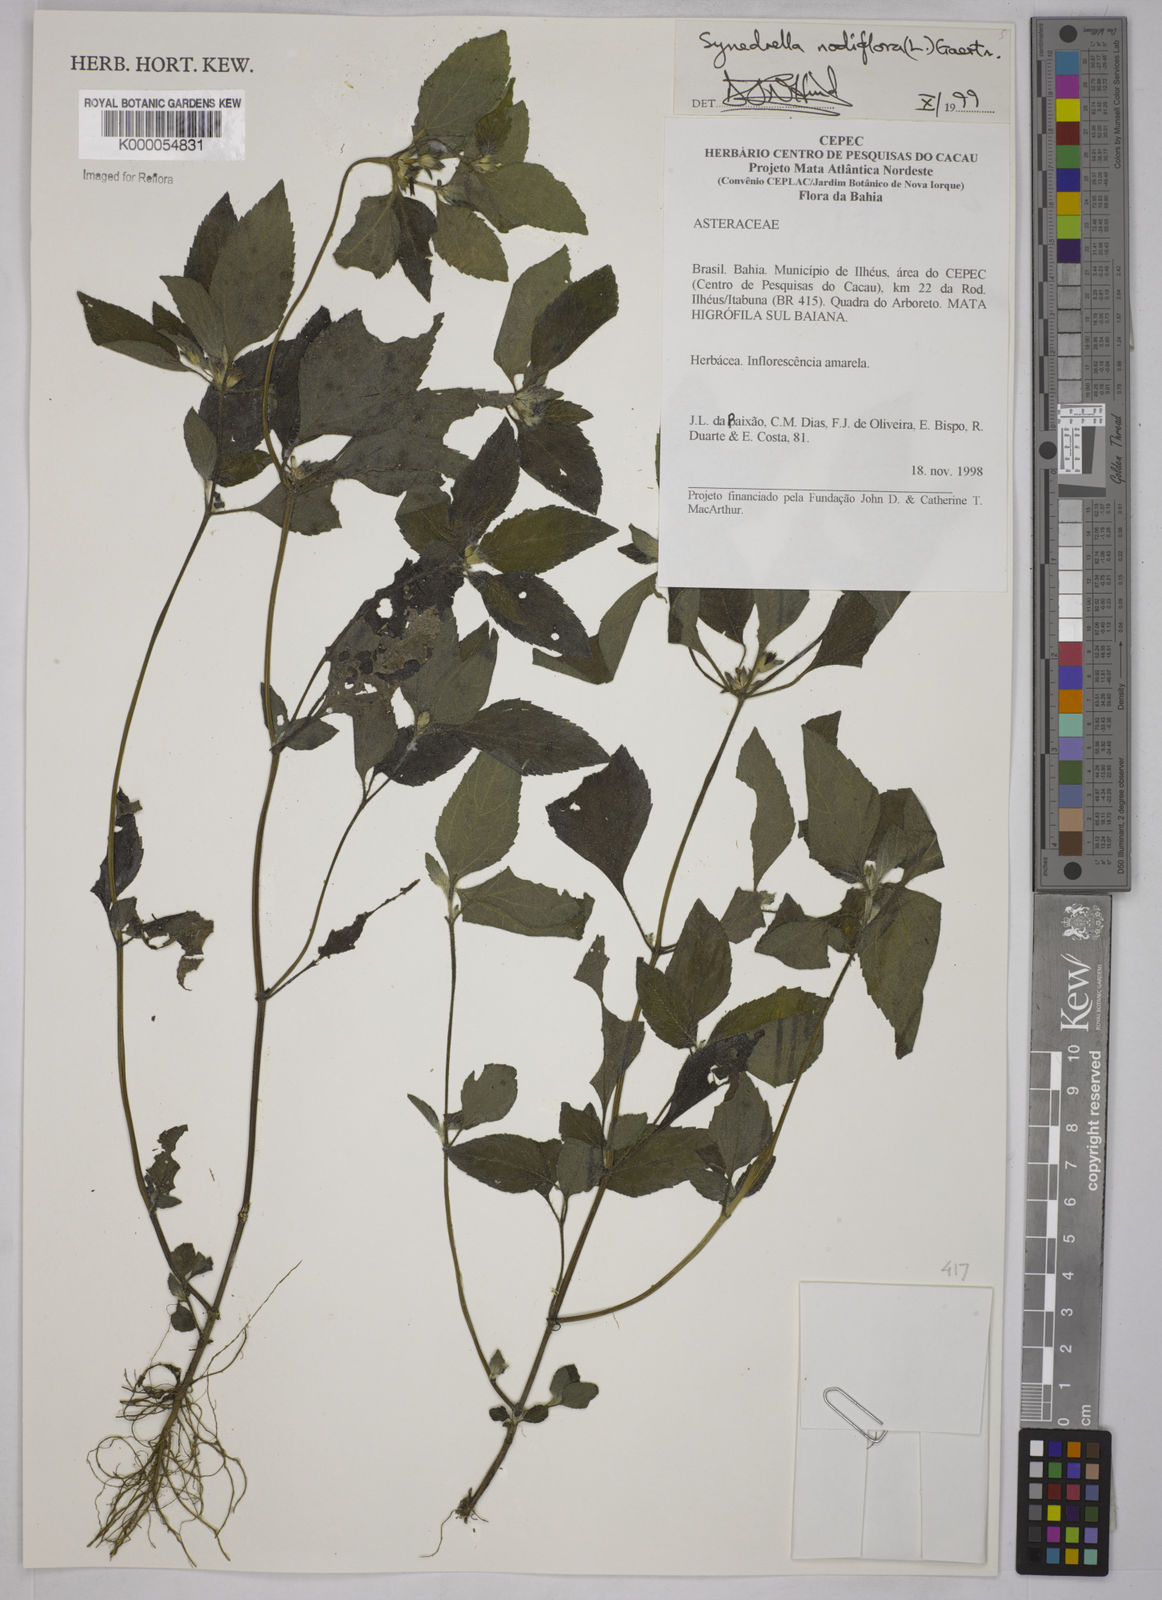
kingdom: Plantae
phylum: Tracheophyta
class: Magnoliopsida
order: Asterales
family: Asteraceae
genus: Synedrella
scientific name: Synedrella nodiflora
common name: Nodeweed
